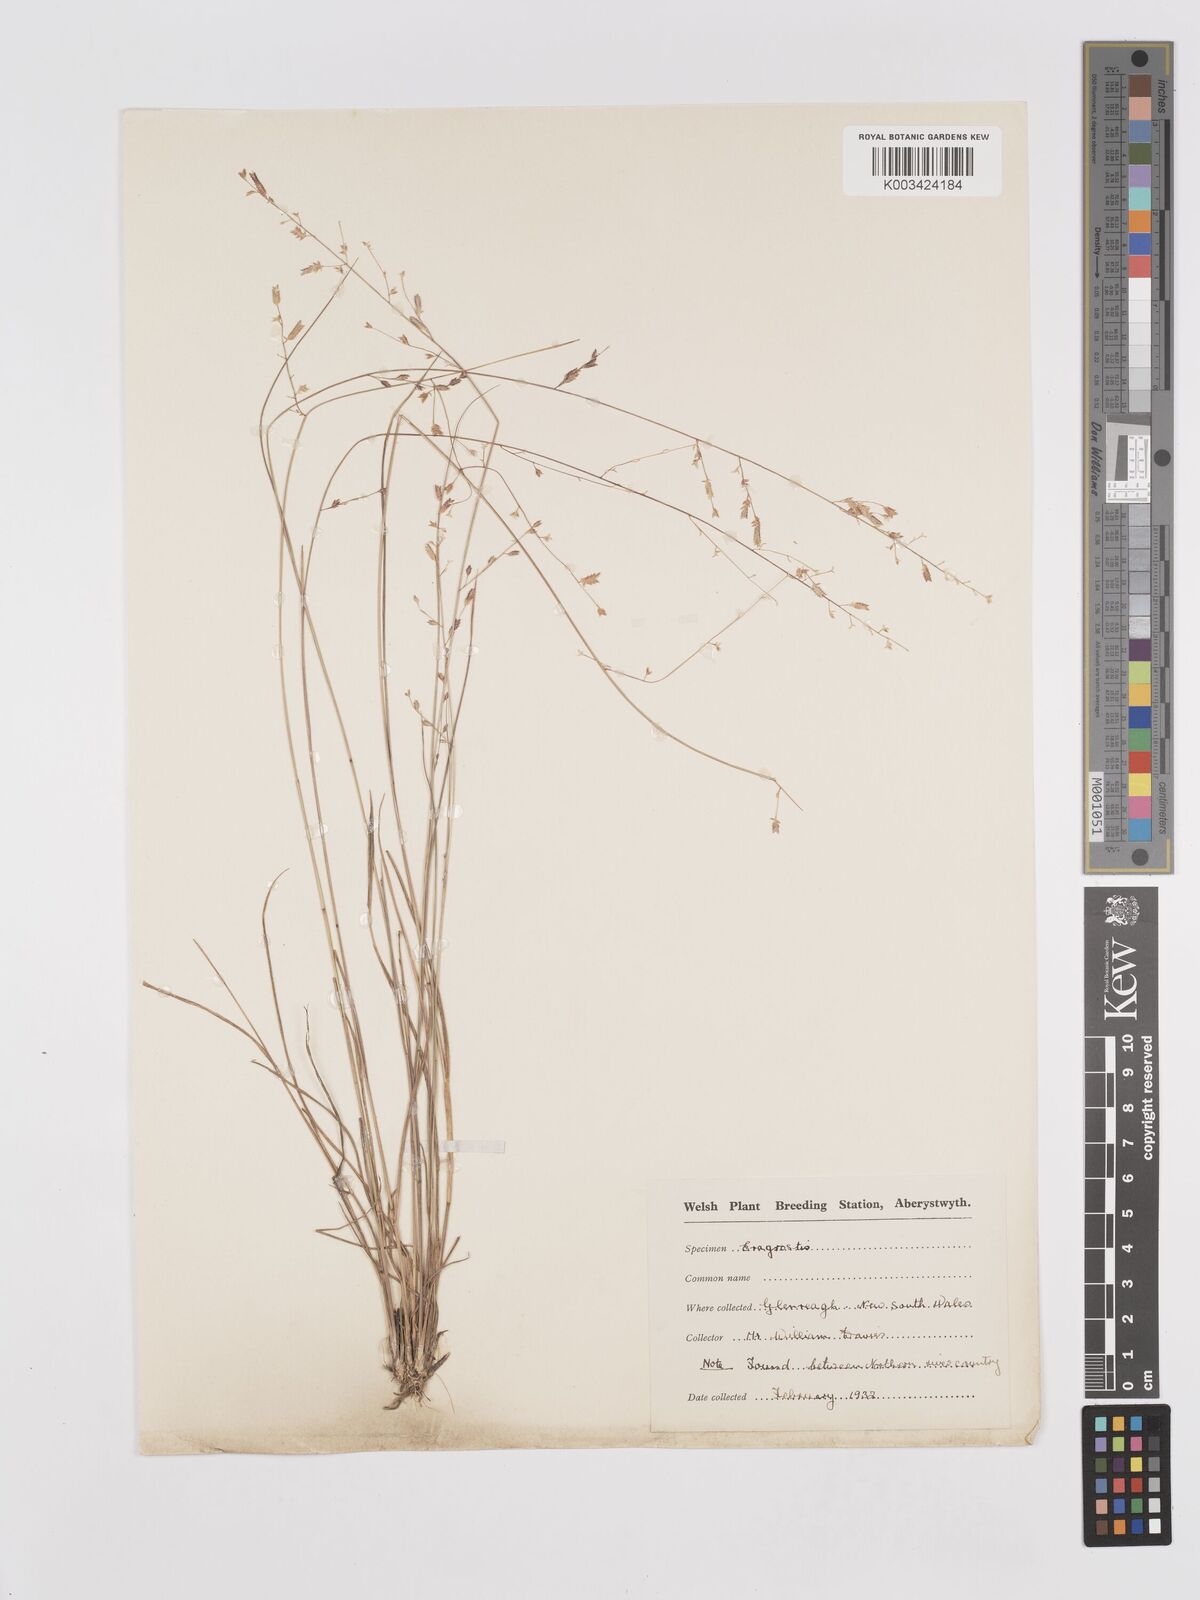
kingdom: Plantae
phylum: Tracheophyta
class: Liliopsida
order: Poales
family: Poaceae
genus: Eragrostis
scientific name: Eragrostis brownii
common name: Lovegrass
